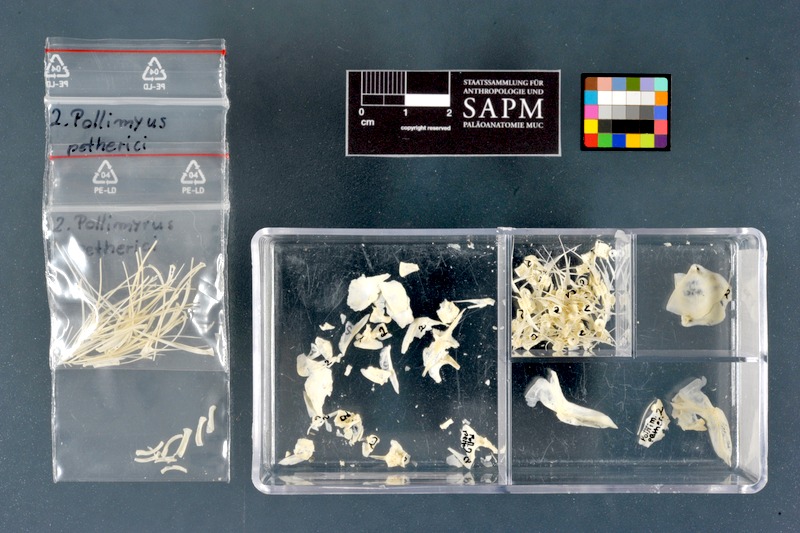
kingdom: Animalia
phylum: Chordata
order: Osteoglossiformes
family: Mormyridae
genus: Pollimyrus
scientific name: Pollimyrus petherici
